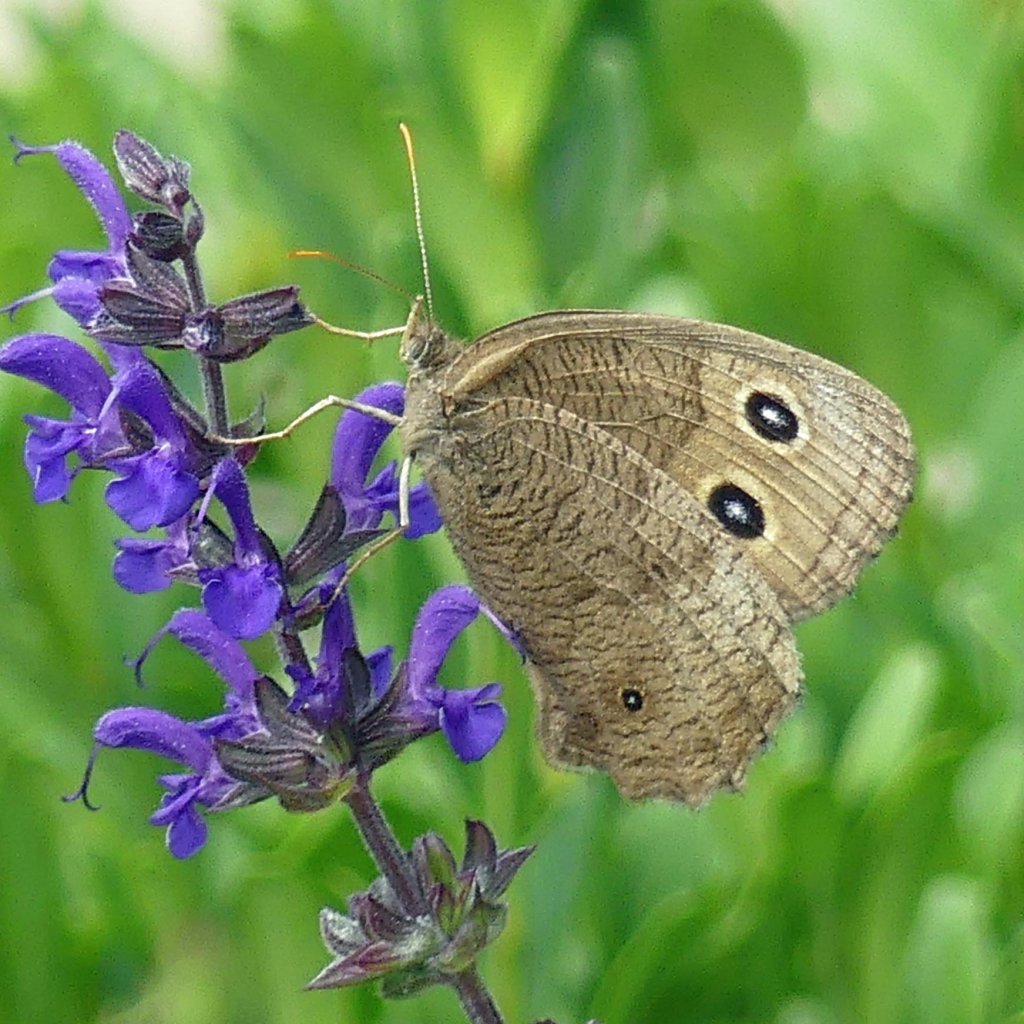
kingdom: Animalia
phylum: Arthropoda
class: Insecta
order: Lepidoptera
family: Nymphalidae
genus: Cercyonis
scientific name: Cercyonis pegala
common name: Common Wood-Nymph
